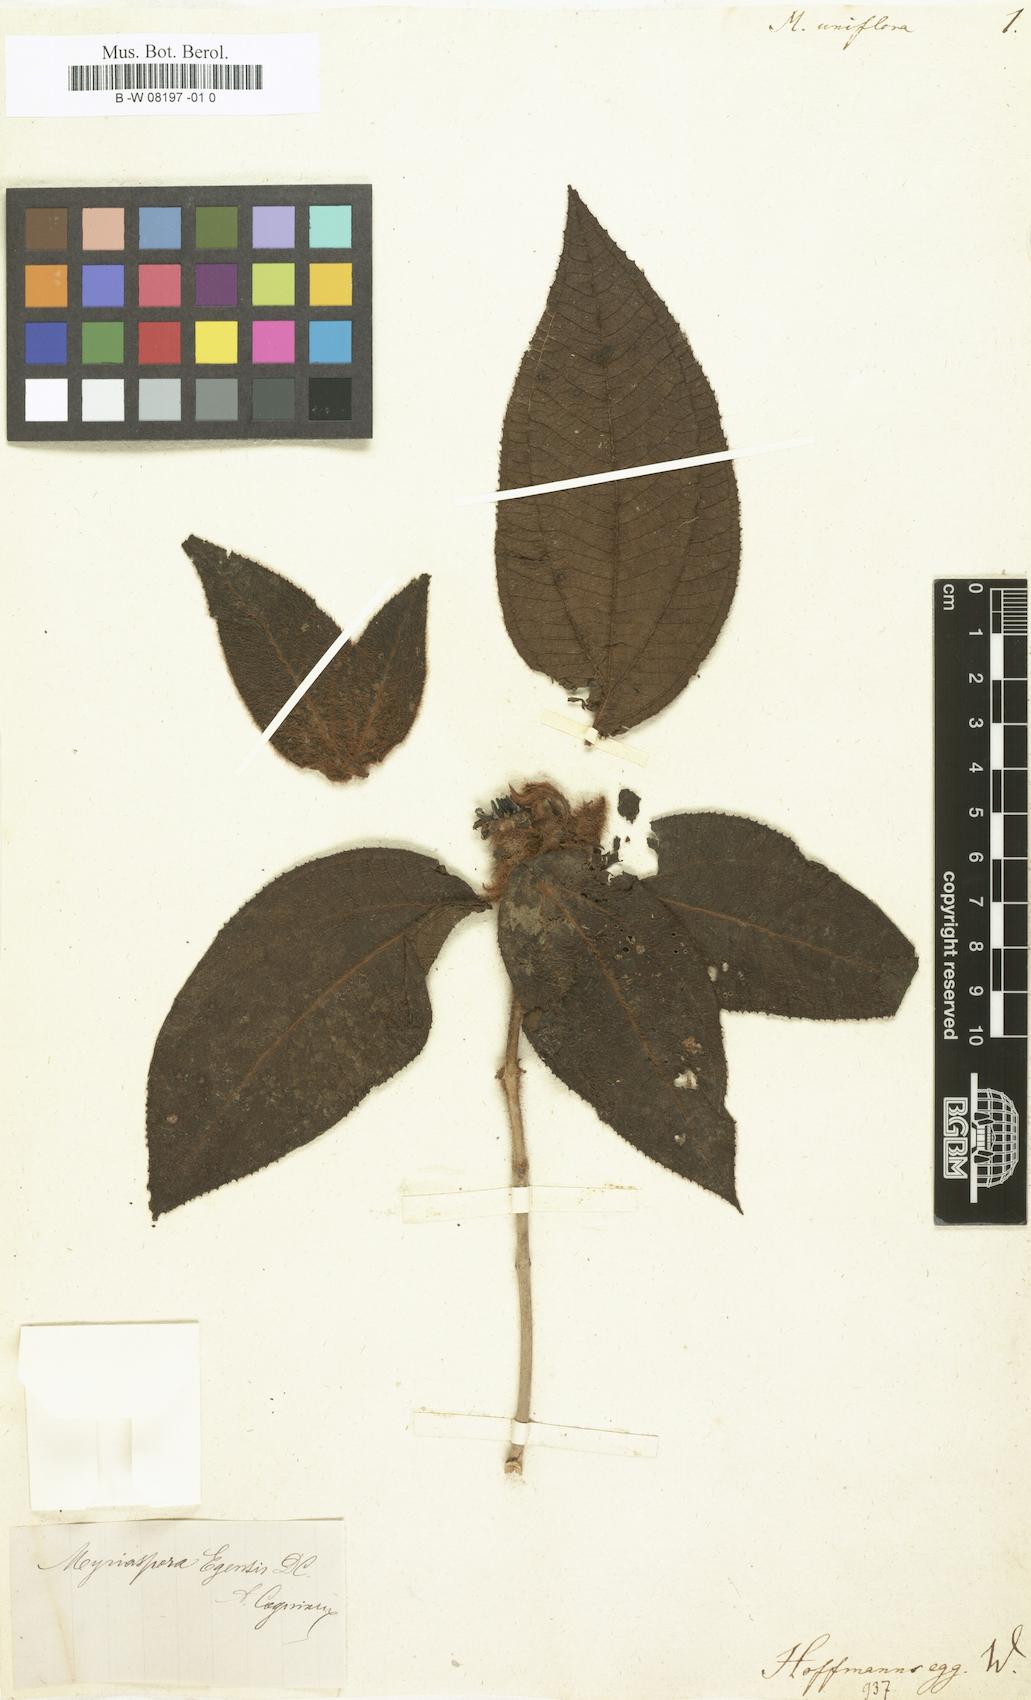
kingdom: Plantae
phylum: Tracheophyta
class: Magnoliopsida
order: Myrtales
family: Melastomataceae
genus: Melastoma
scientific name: Melastoma uniflorum
